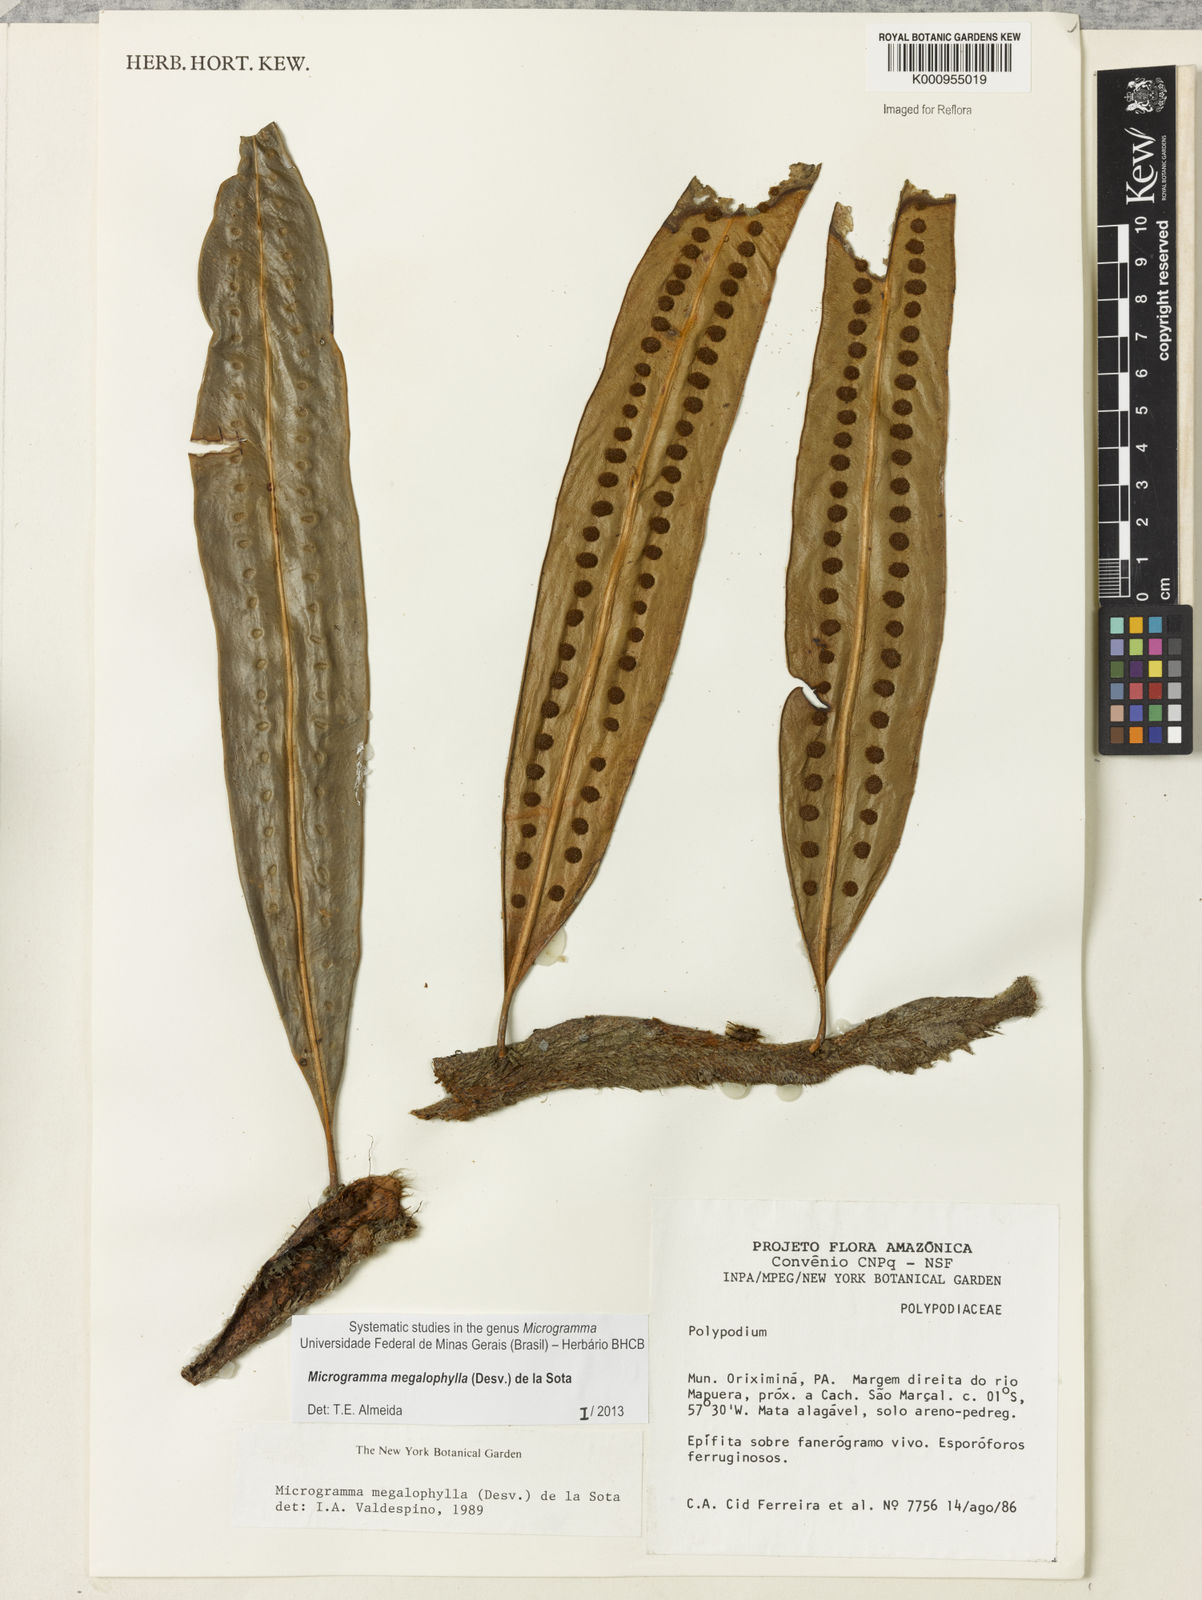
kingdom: Plantae
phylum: Tracheophyta
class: Polypodiopsida
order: Polypodiales
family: Polypodiaceae
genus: Microgramma
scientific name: Microgramma megalophylla
